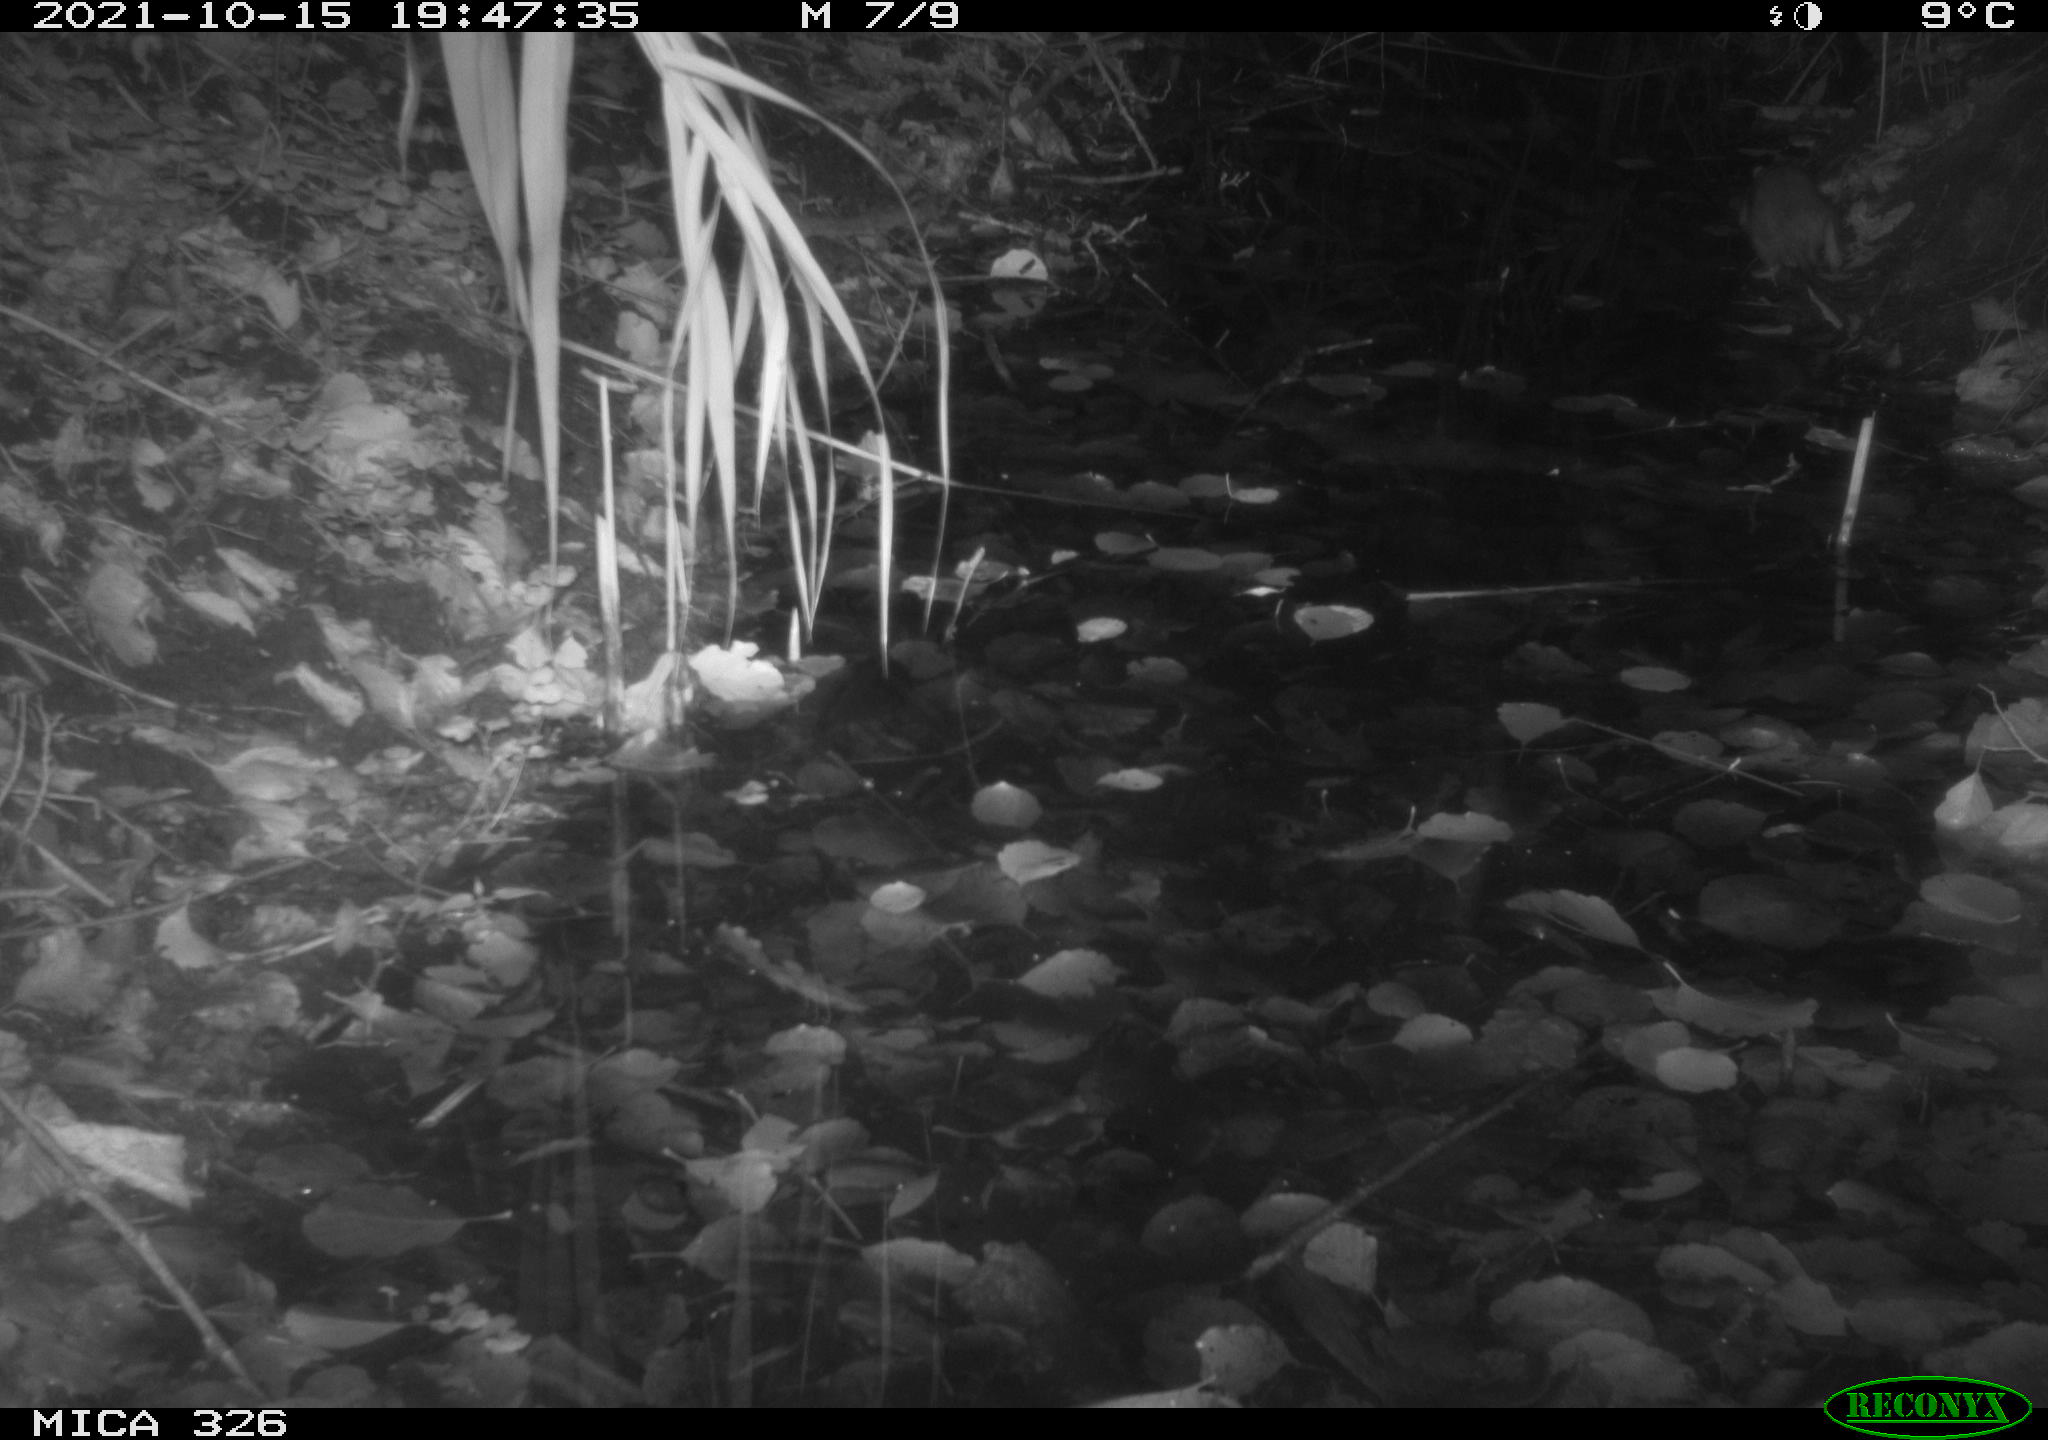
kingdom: Animalia
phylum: Chordata
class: Mammalia
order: Rodentia
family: Muridae
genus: Rattus
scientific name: Rattus norvegicus
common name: Brown rat
